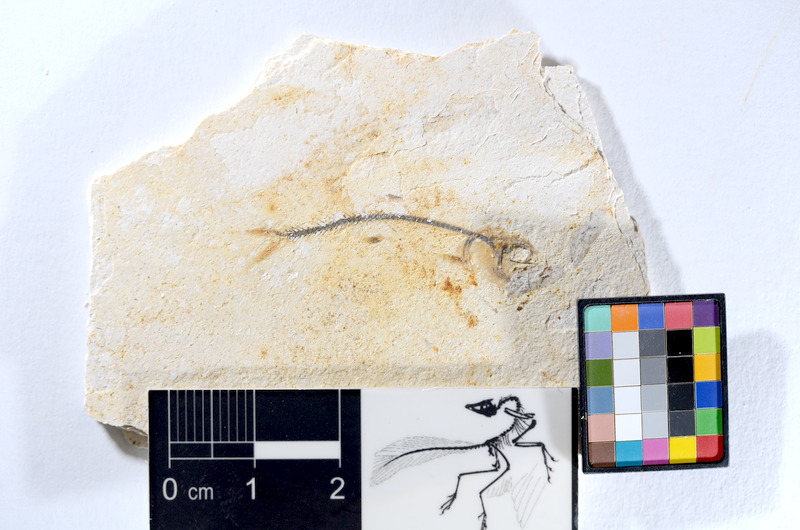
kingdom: Animalia
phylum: Chordata
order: Salmoniformes
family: Orthogonikleithridae
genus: Orthogonikleithrus
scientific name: Orthogonikleithrus hoelli
